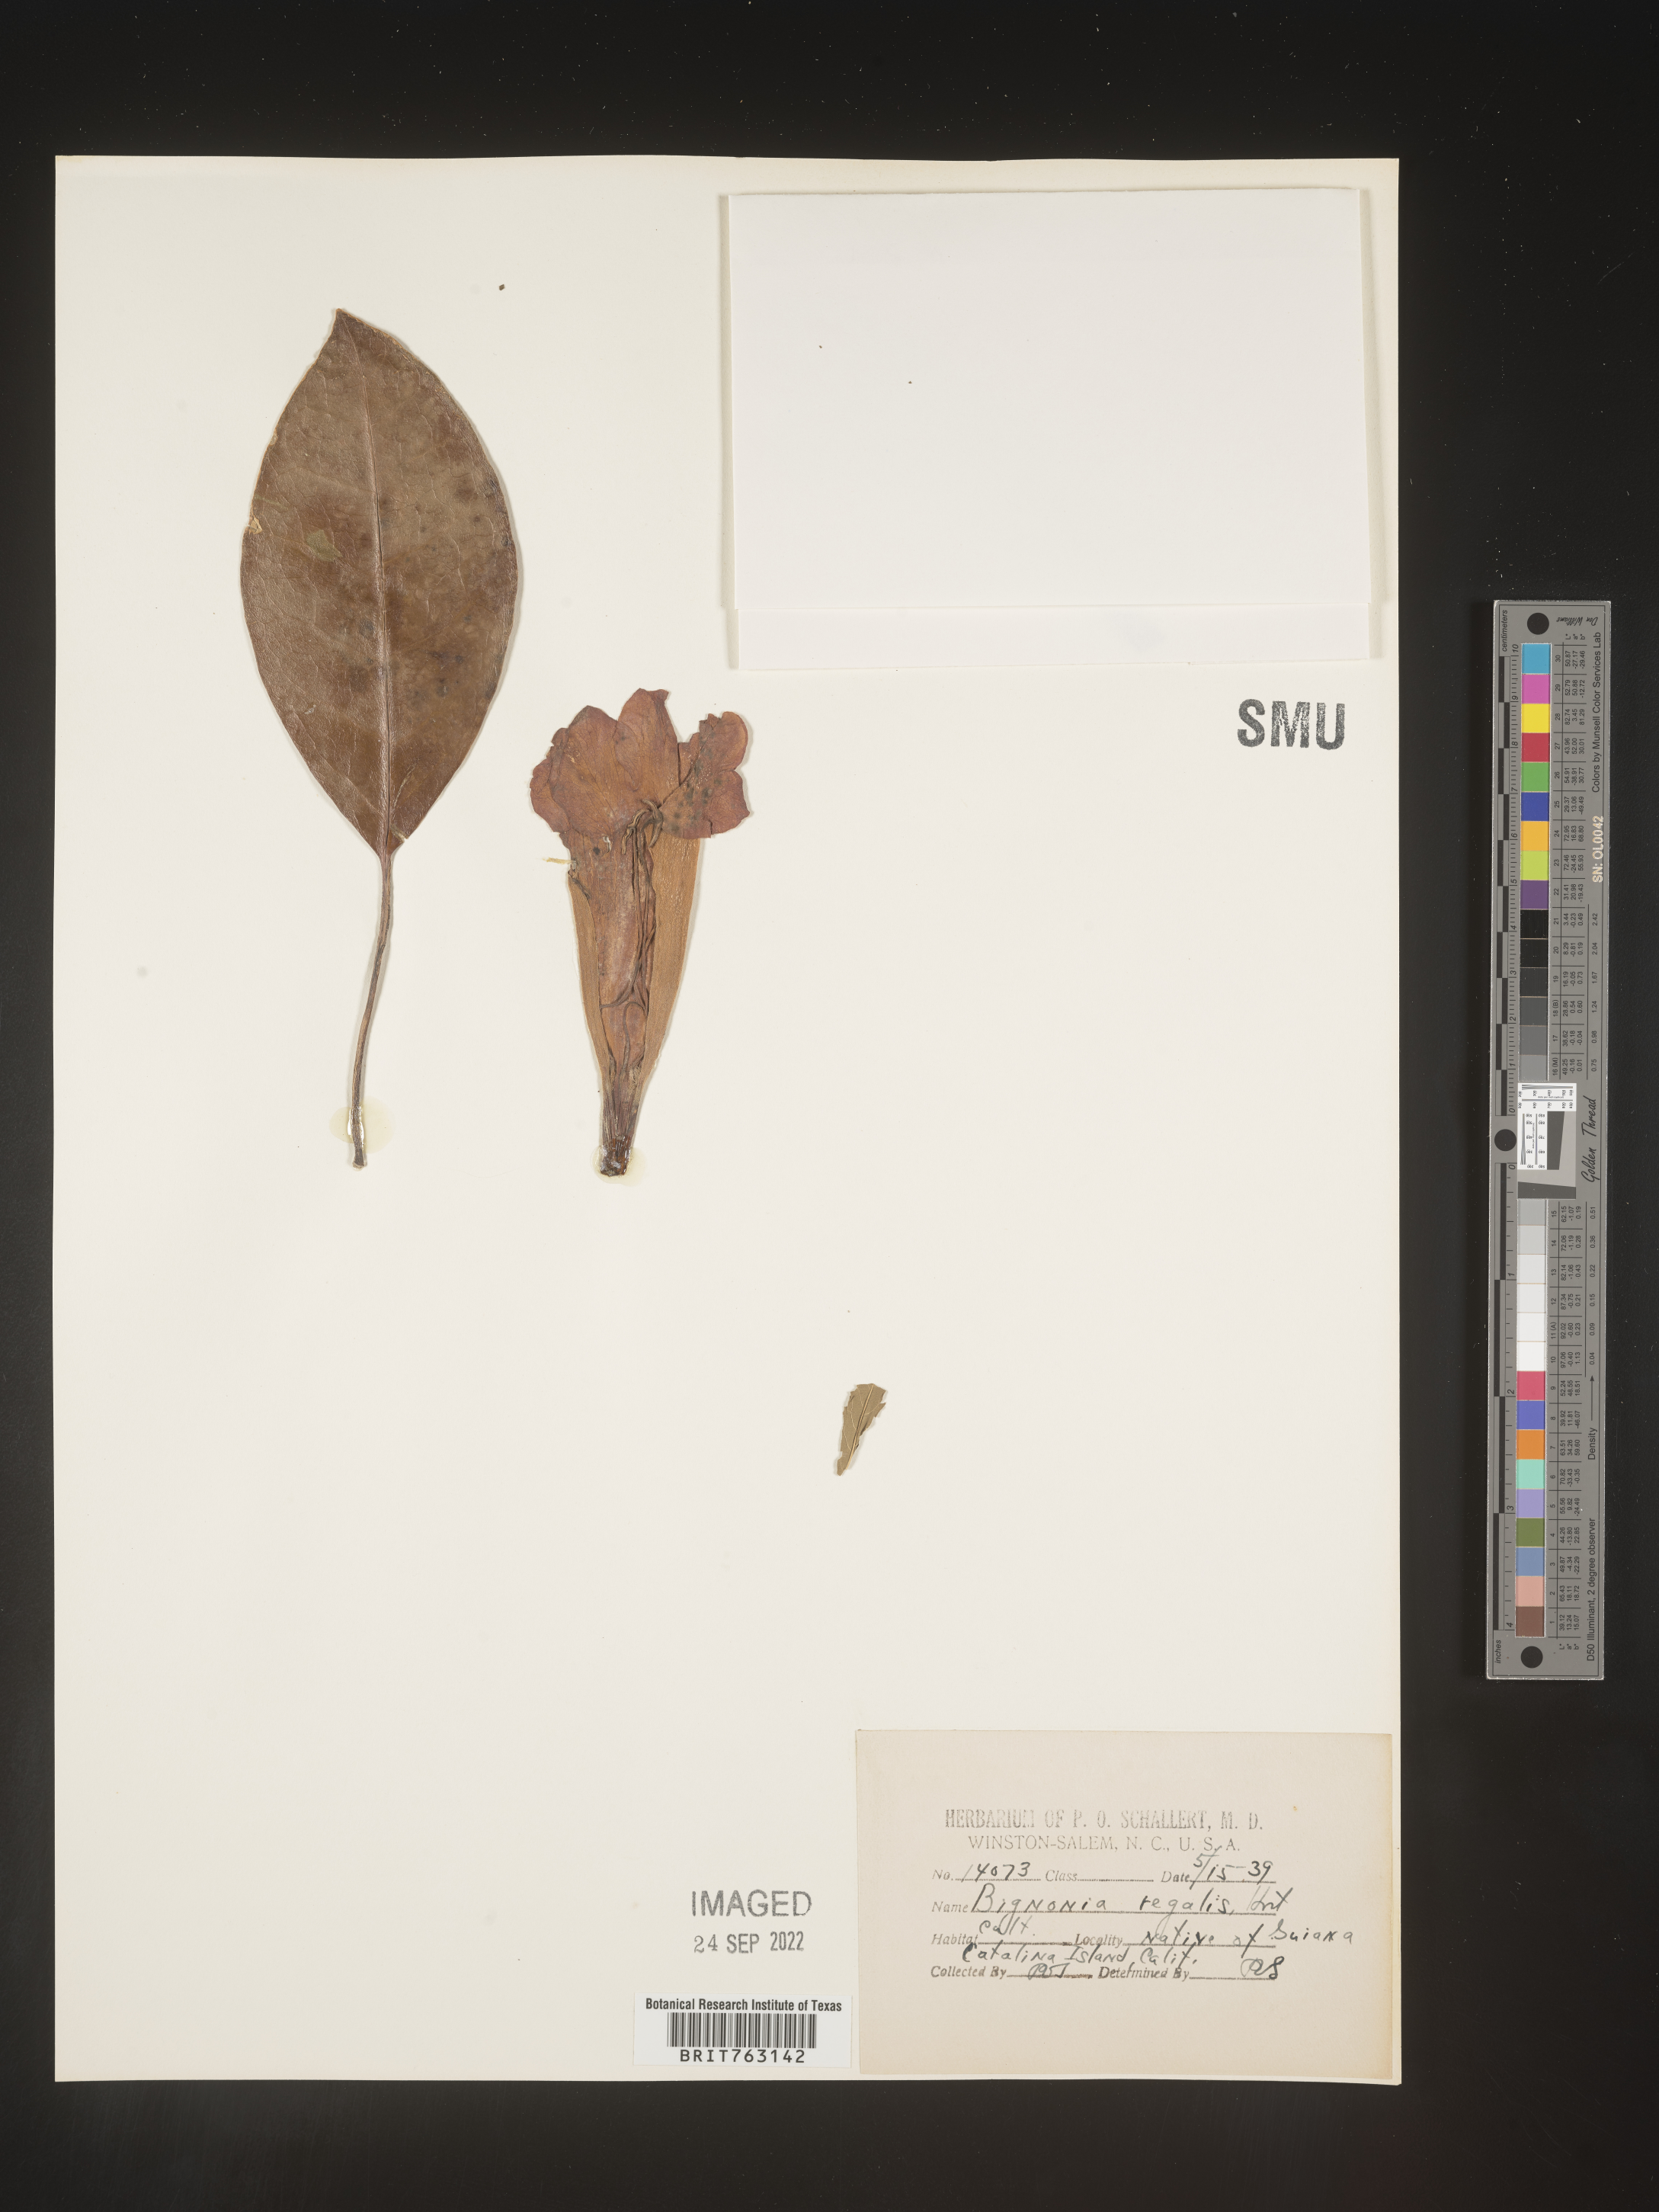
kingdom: Plantae
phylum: Tracheophyta
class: Magnoliopsida
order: Lamiales
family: Bignoniaceae
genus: Bignonia
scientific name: Bignonia
